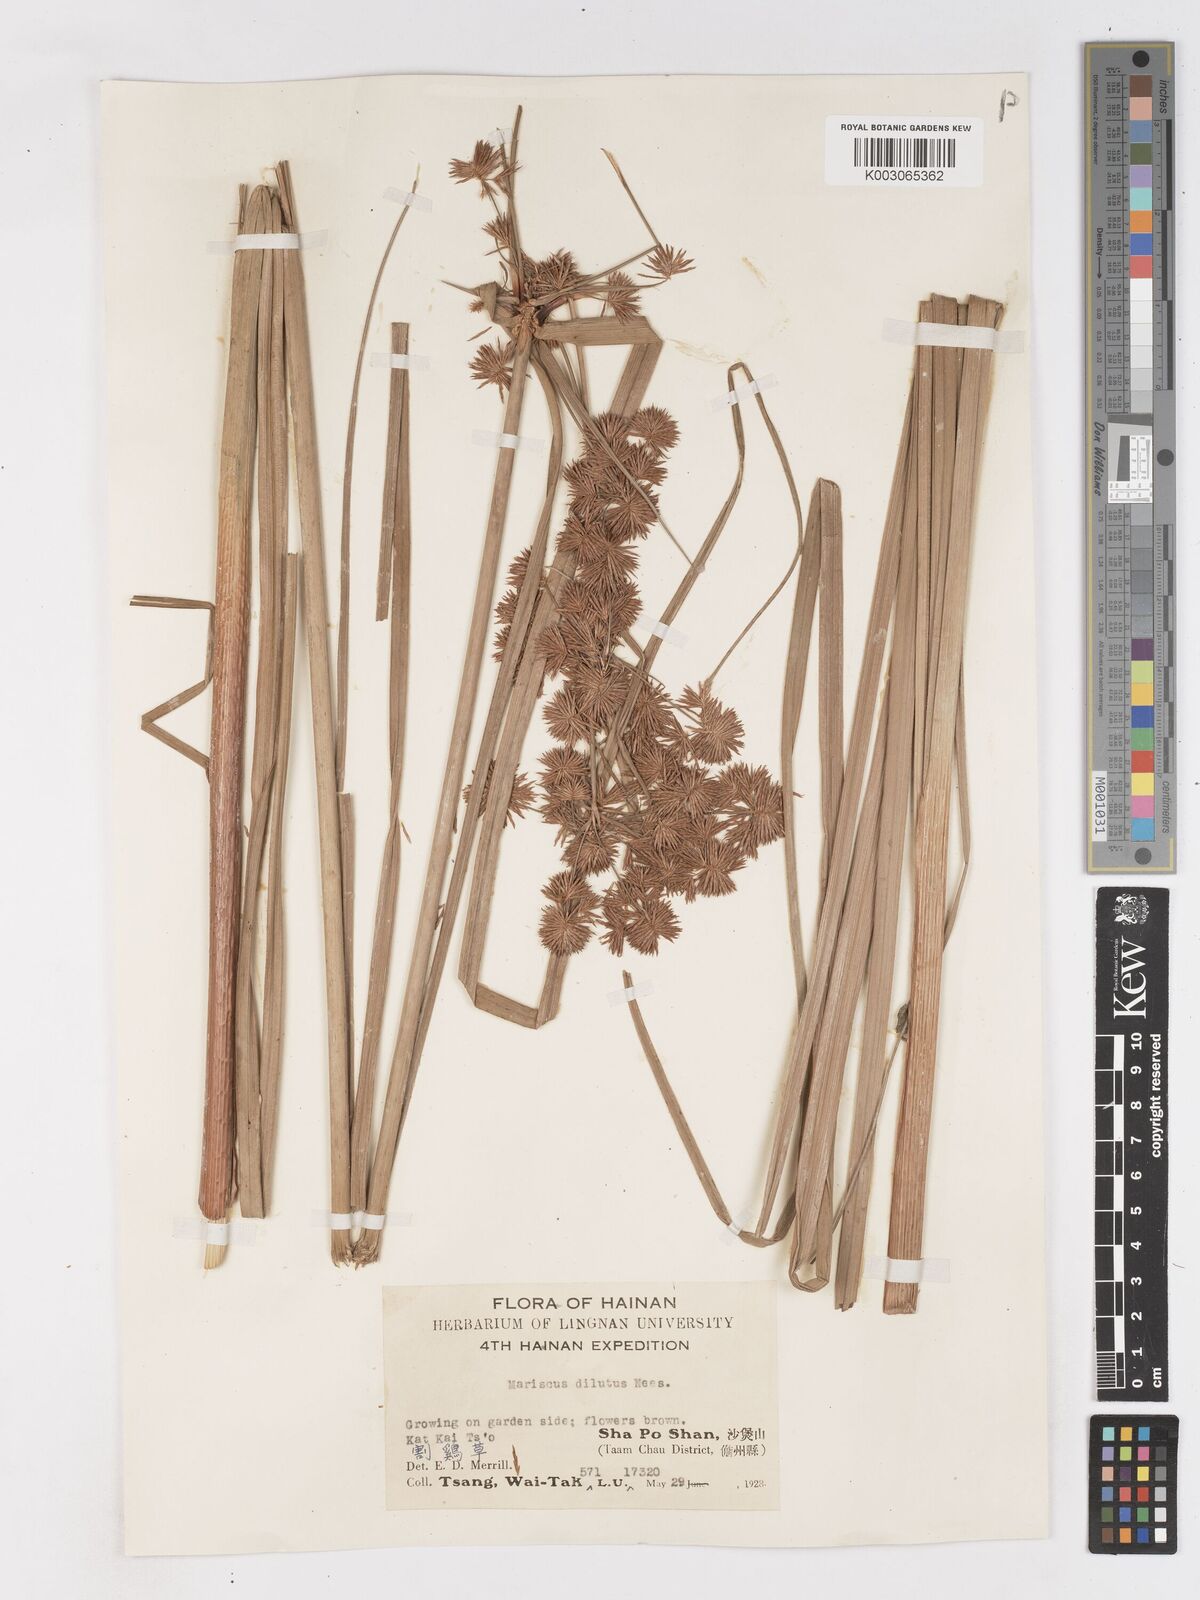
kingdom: Plantae
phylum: Tracheophyta
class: Liliopsida
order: Poales
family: Cyperaceae
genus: Cyperus
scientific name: Cyperus compactus
